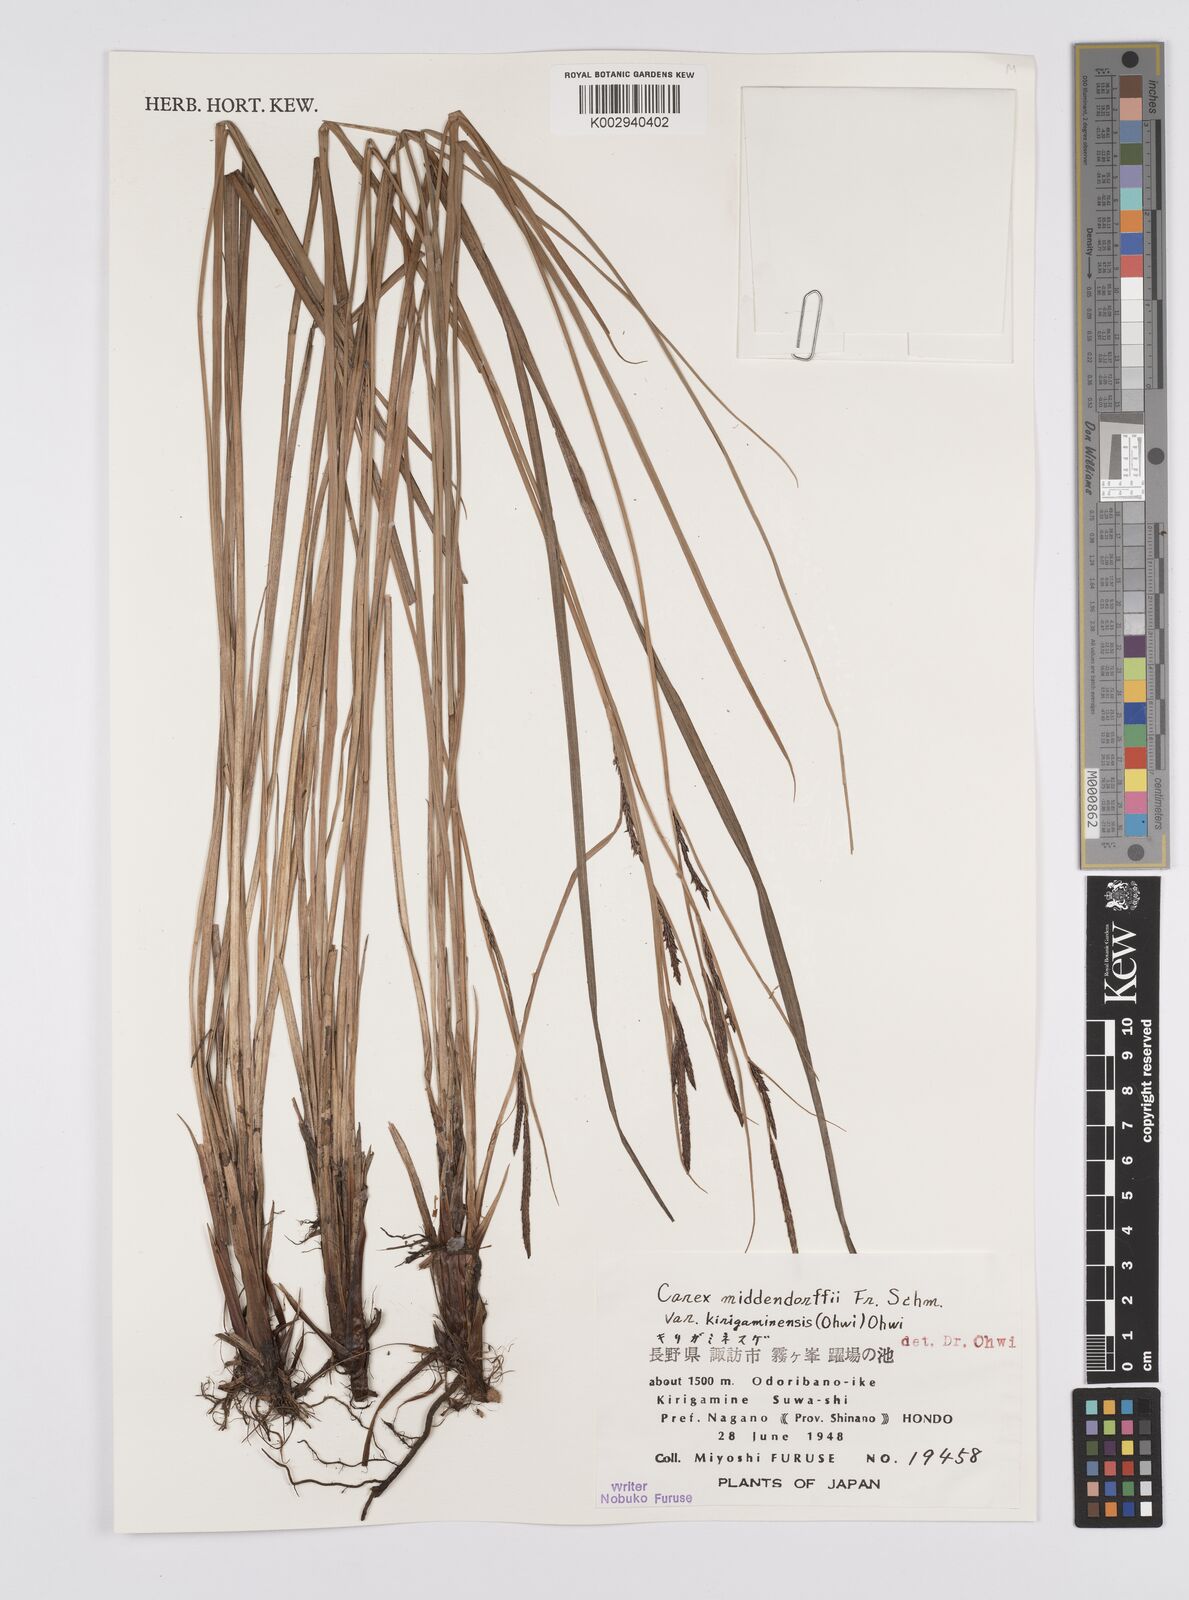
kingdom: Plantae
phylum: Tracheophyta
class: Liliopsida
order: Poales
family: Cyperaceae
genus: Carex
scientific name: Carex middendorffii
